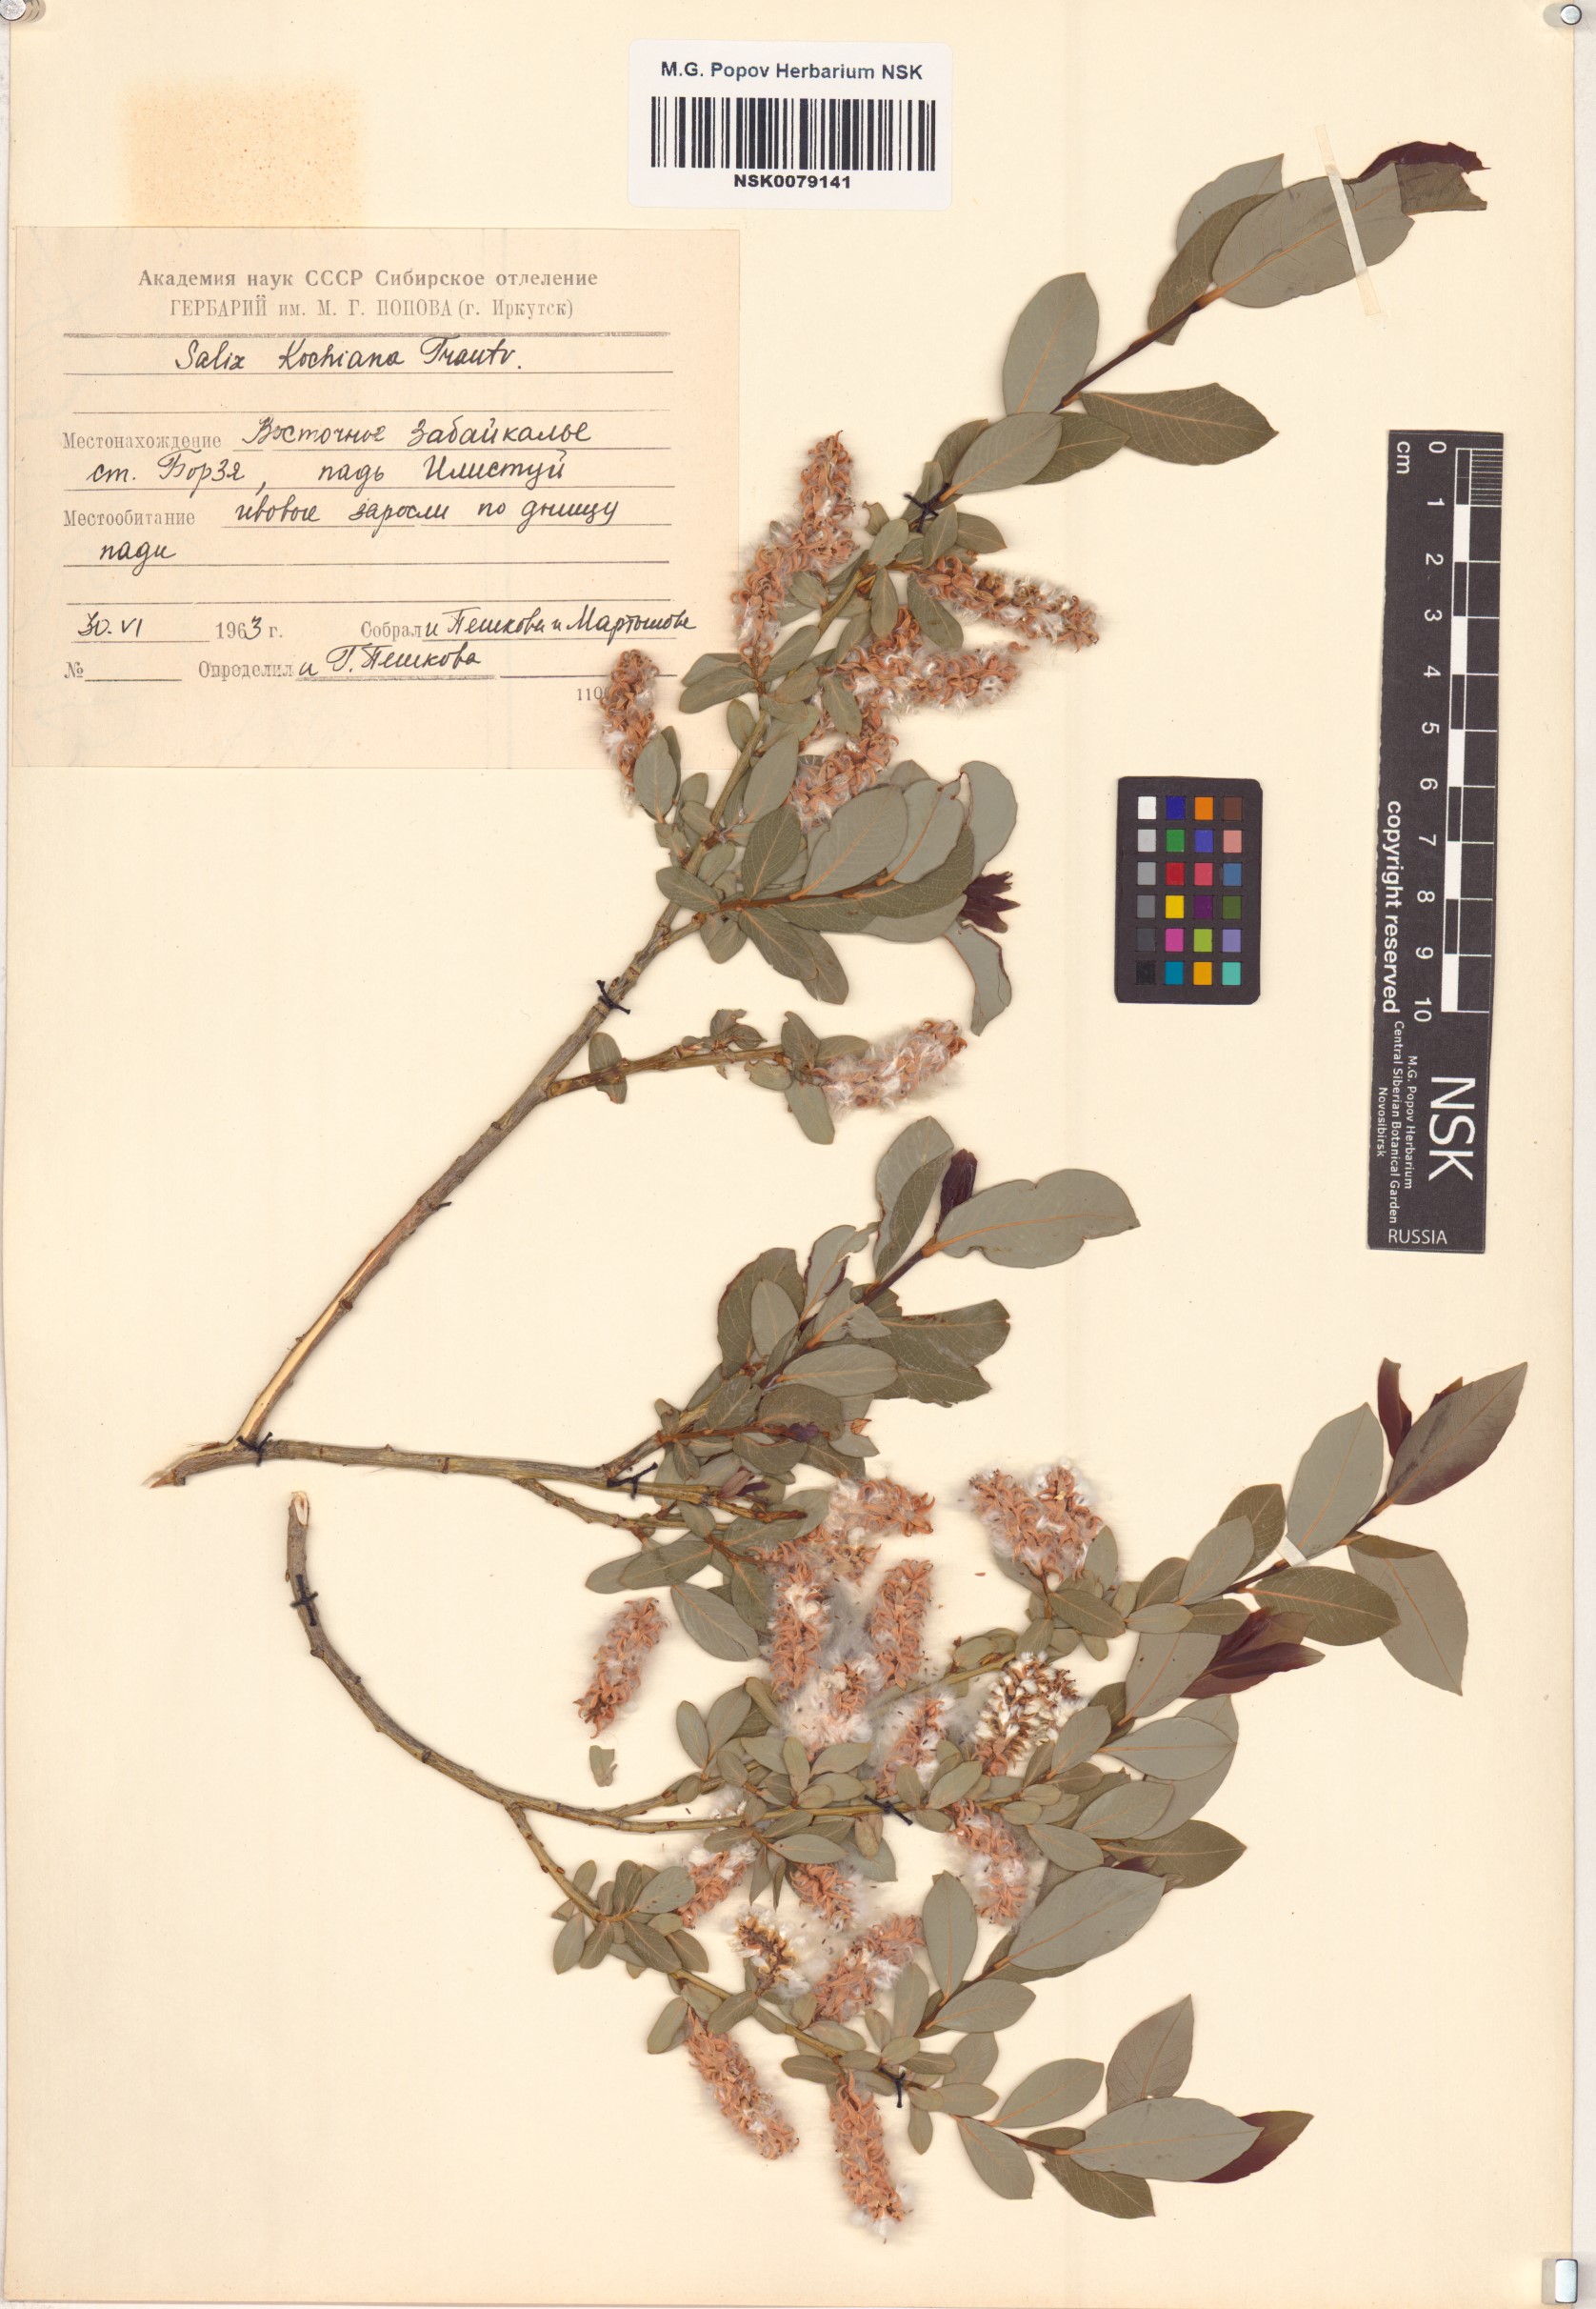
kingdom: Plantae
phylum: Tracheophyta
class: Magnoliopsida
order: Malpighiales
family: Salicaceae
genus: Salix
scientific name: Salix kochiana
